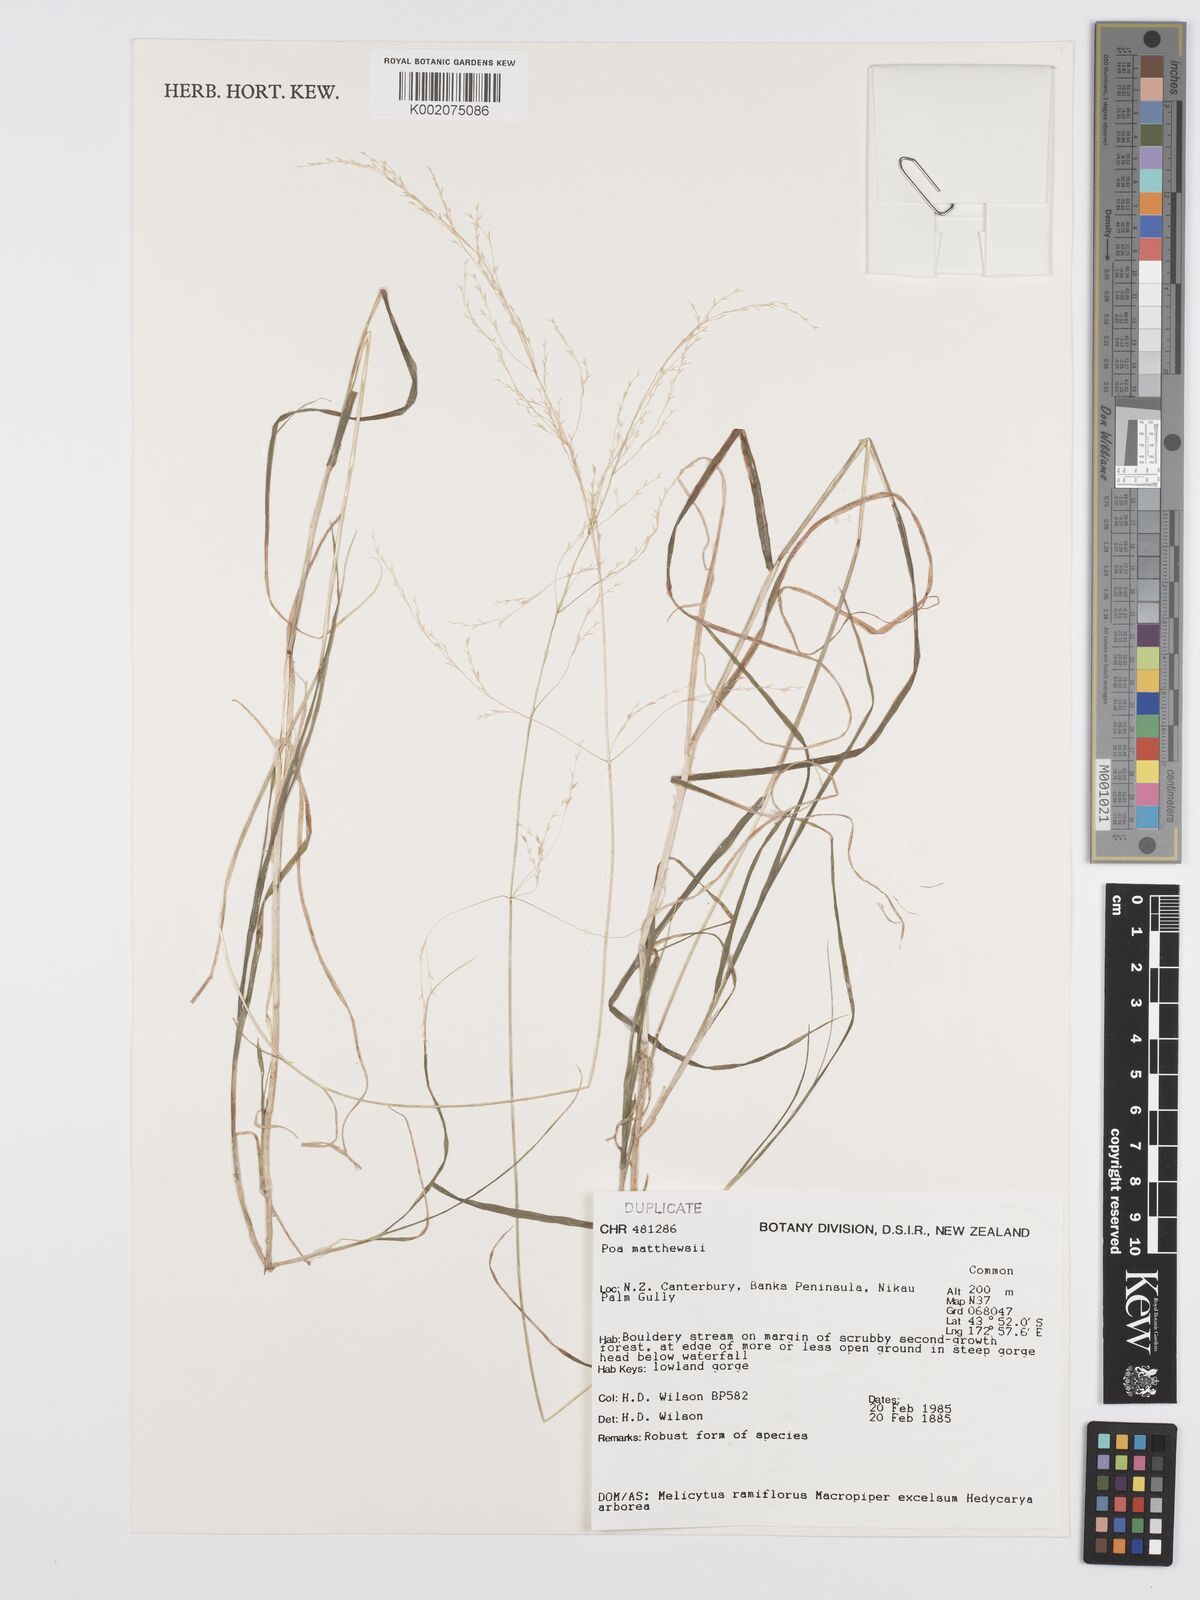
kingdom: Plantae
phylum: Tracheophyta
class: Liliopsida
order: Poales
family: Poaceae
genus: Poa
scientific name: Poa matthewsii
